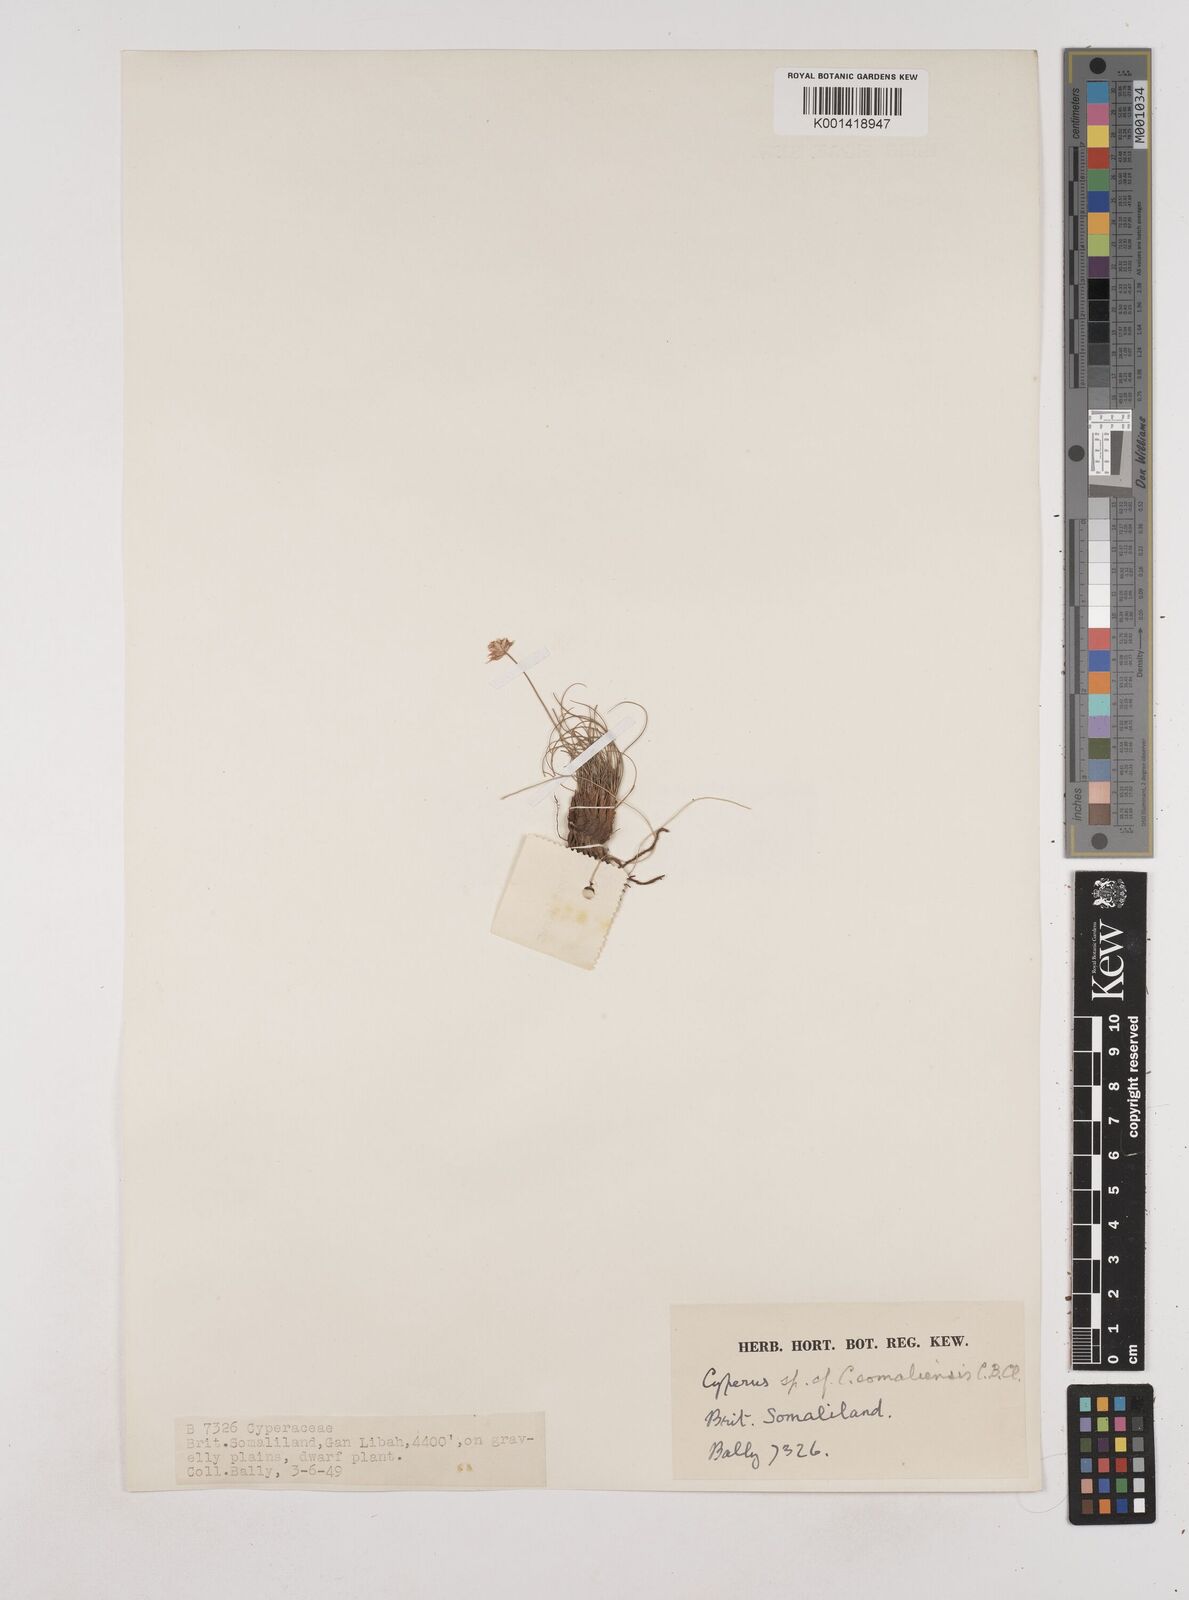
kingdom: Plantae
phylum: Tracheophyta
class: Liliopsida
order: Poales
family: Cyperaceae
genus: Cyperus
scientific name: Cyperus somaliensis
